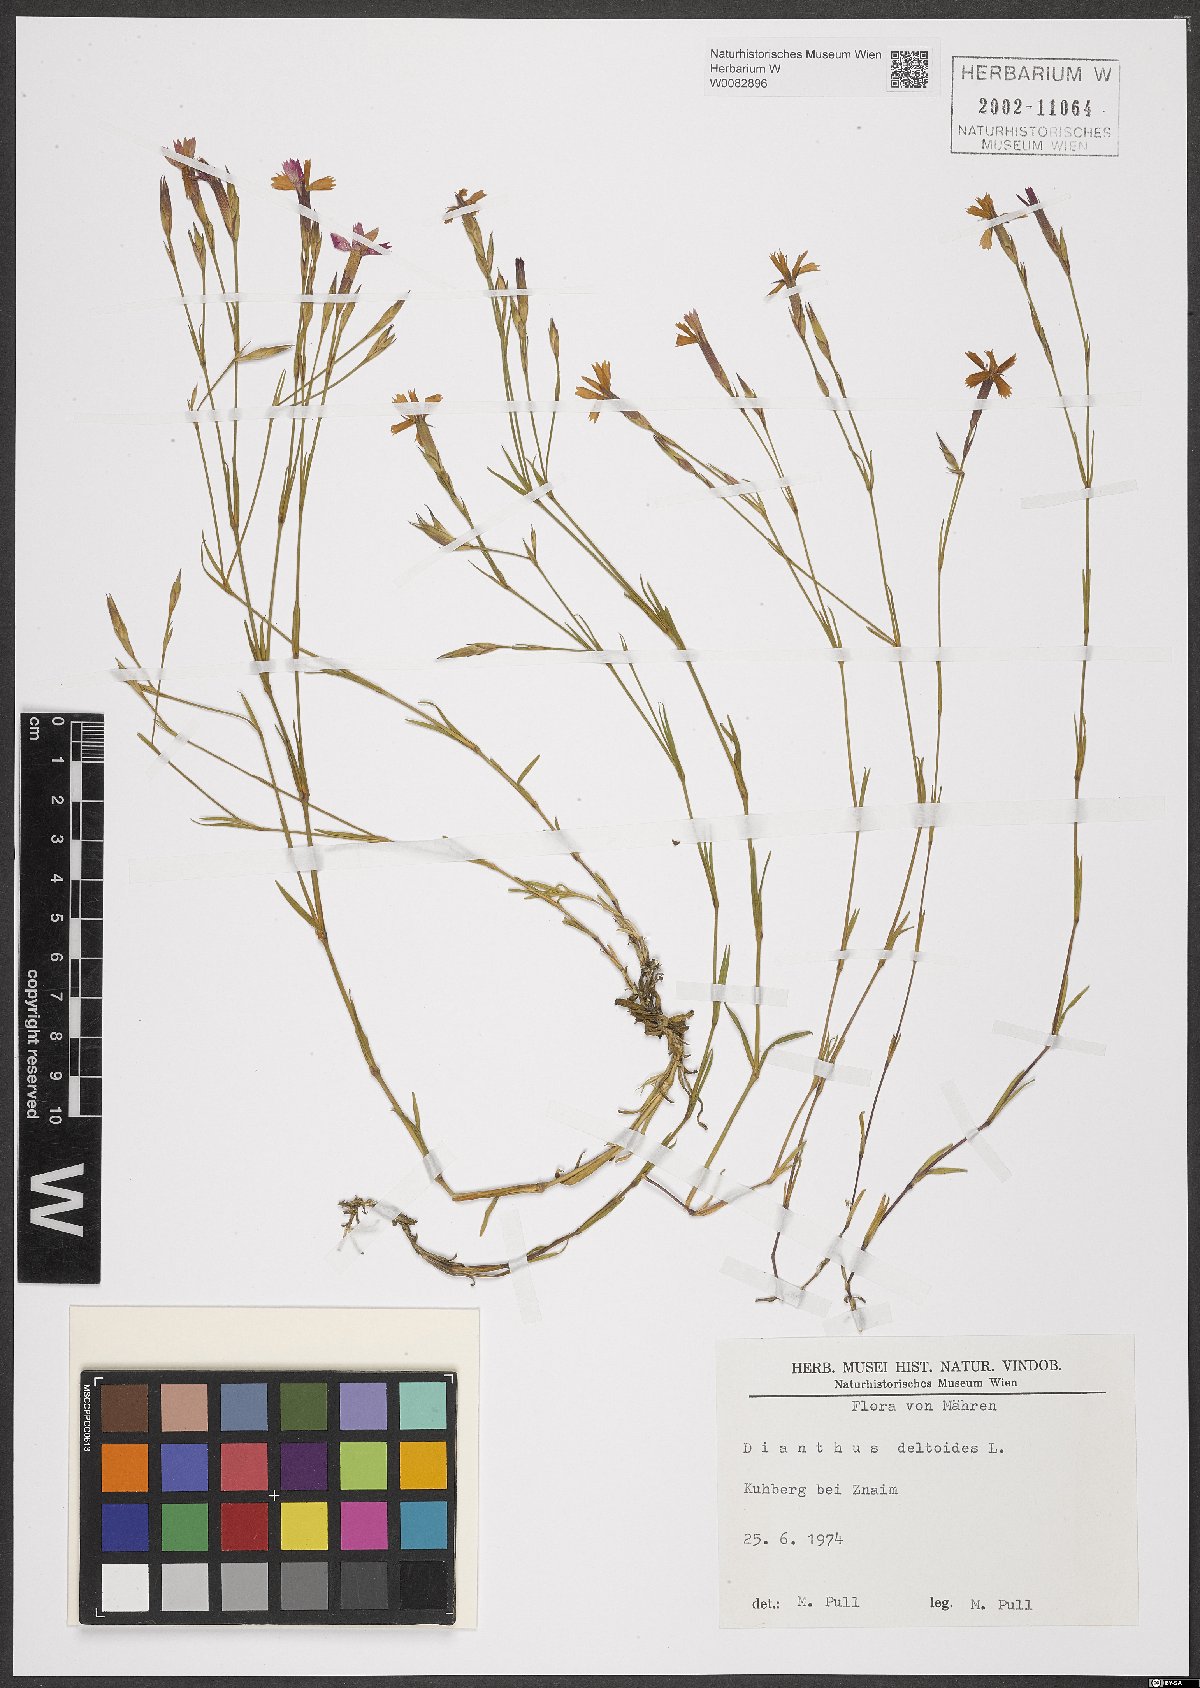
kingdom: Plantae
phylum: Tracheophyta
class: Magnoliopsida
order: Caryophyllales
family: Caryophyllaceae
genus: Dianthus
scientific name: Dianthus deltoides
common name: Maiden pink
